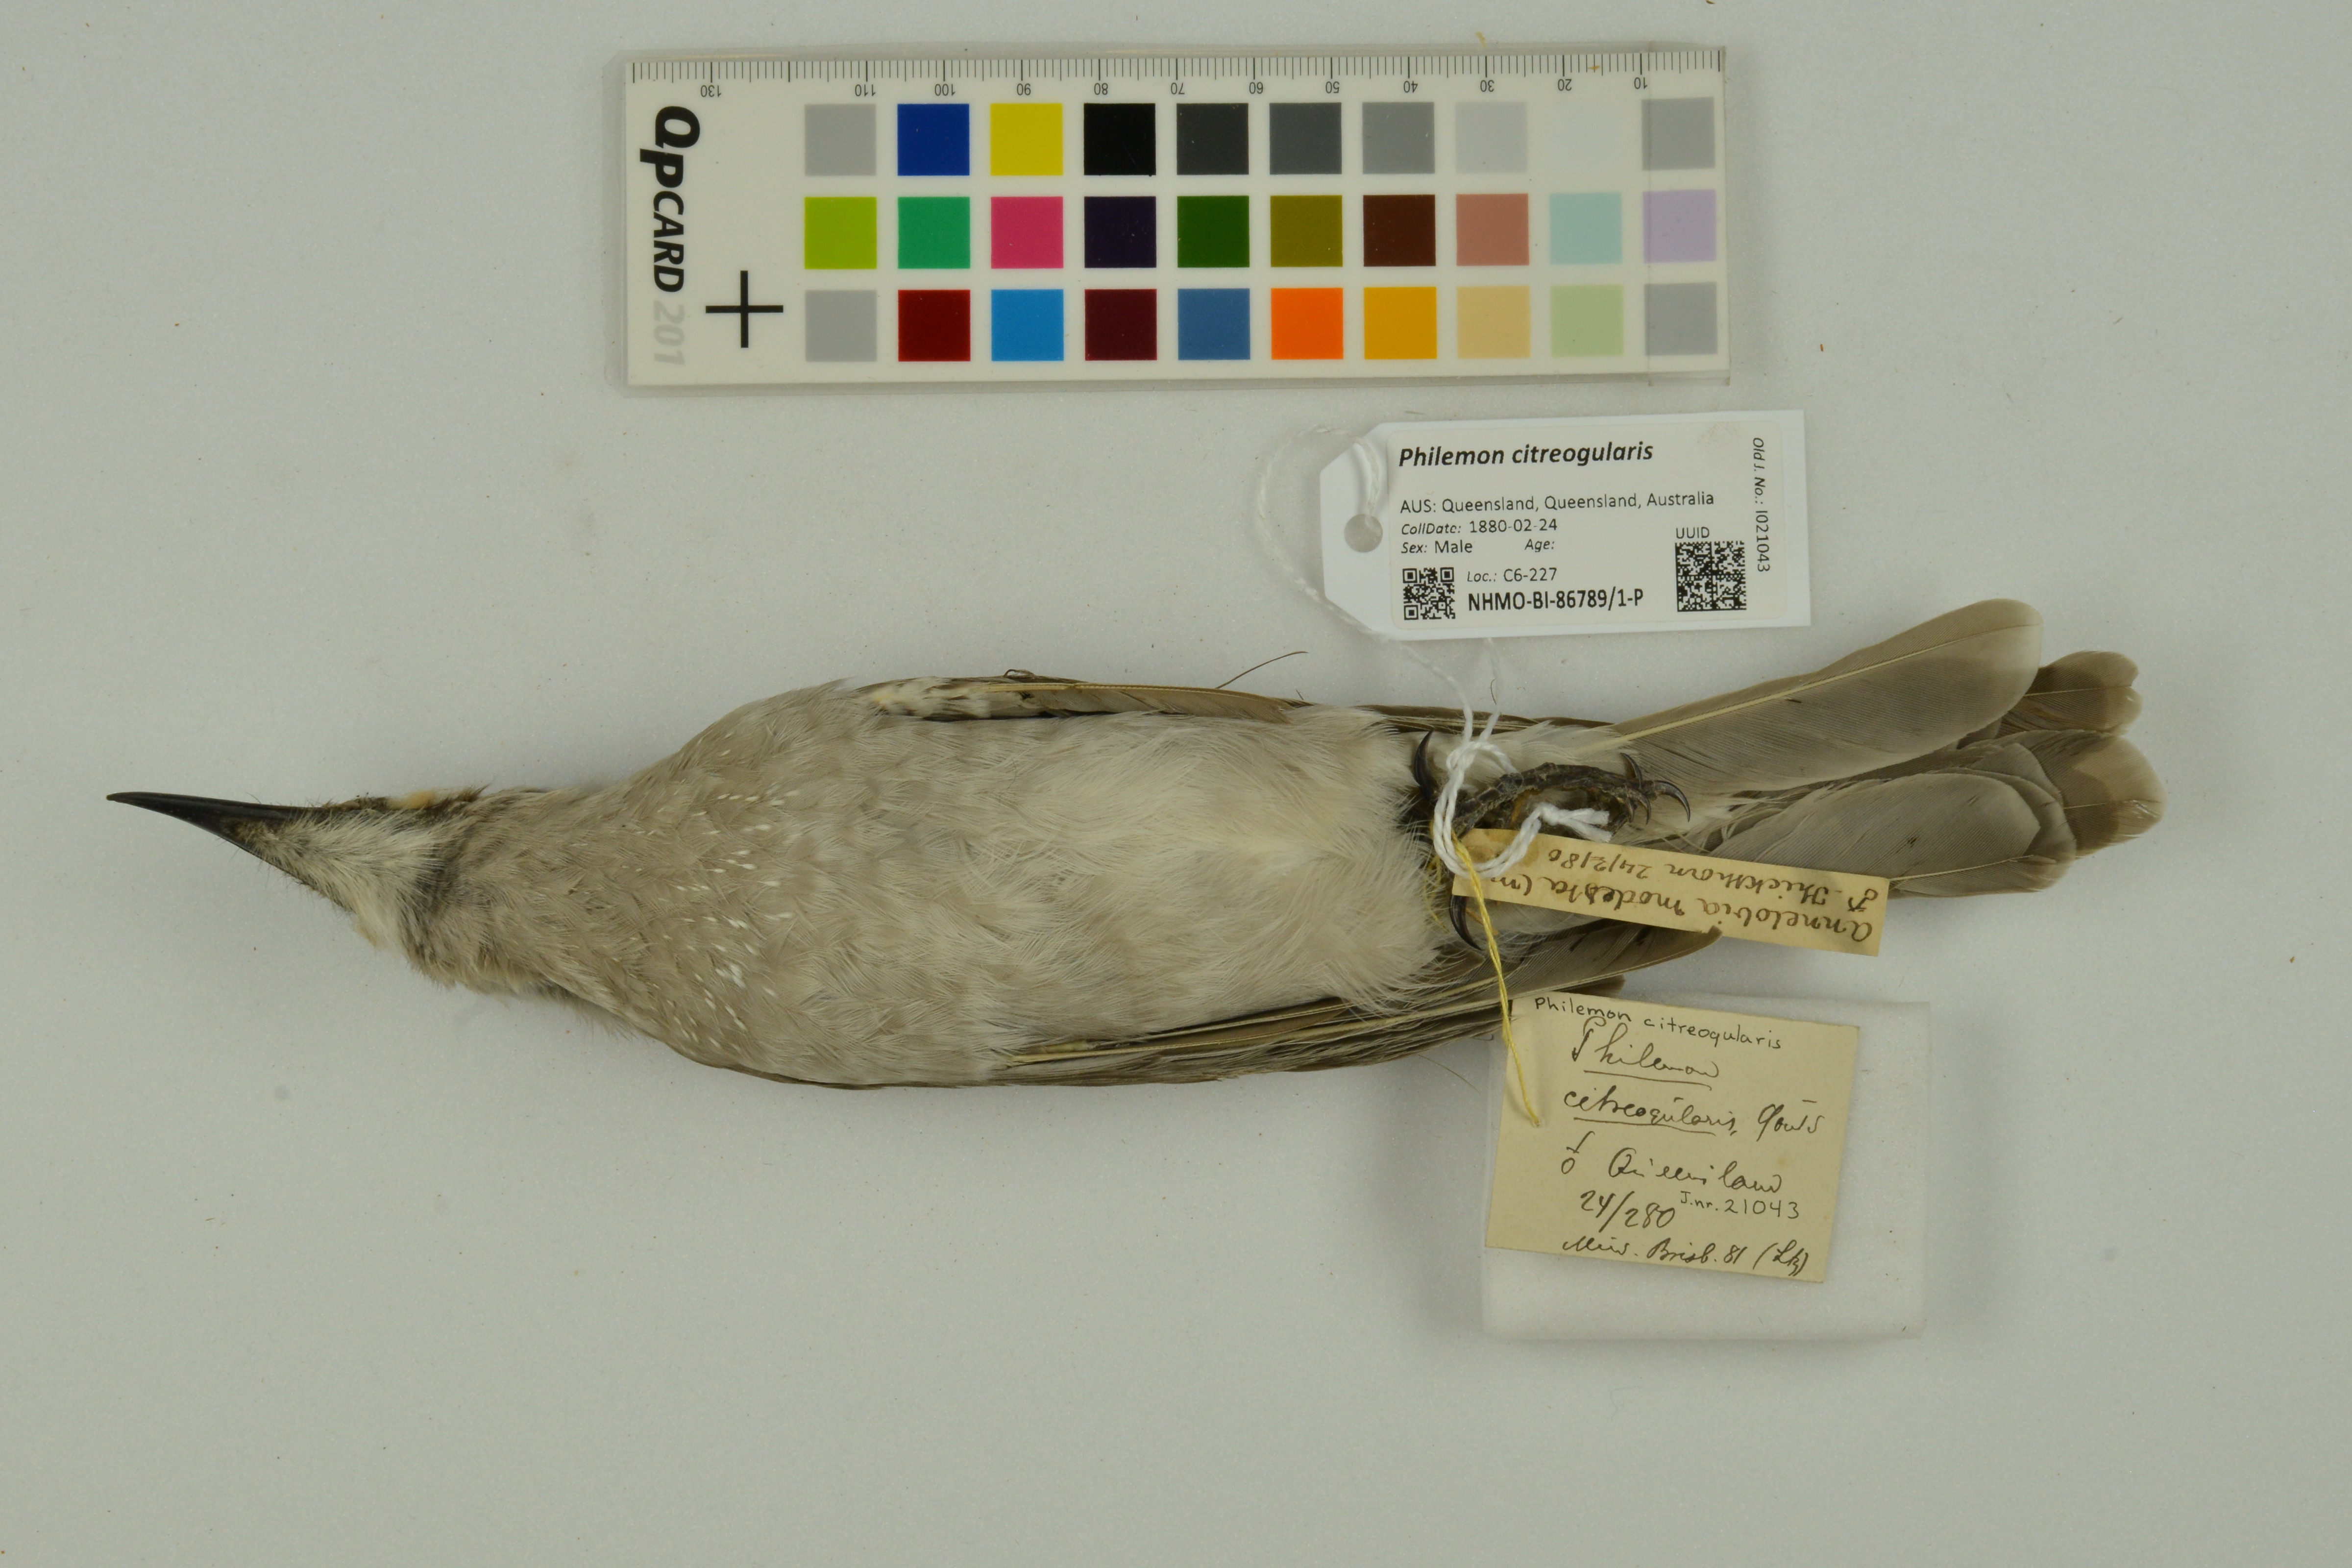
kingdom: Animalia
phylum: Chordata
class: Aves
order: Passeriformes
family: Meliphagidae
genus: Philemon
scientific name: Philemon citreogularis
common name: Little friarbird
